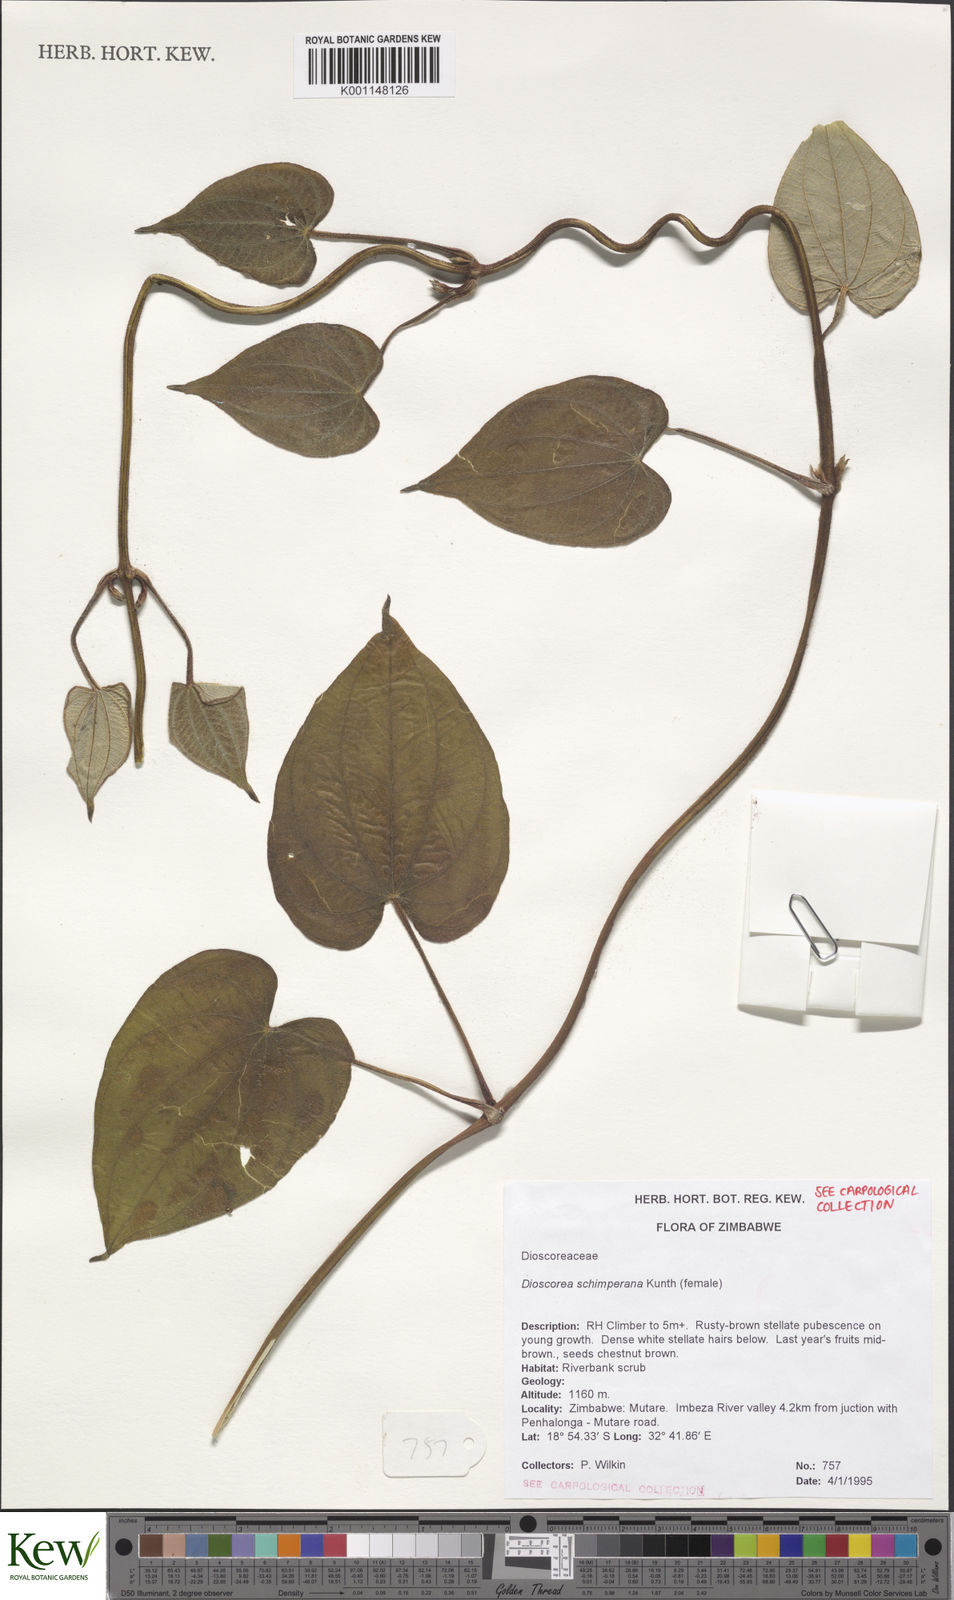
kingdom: Plantae
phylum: Tracheophyta
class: Liliopsida
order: Dioscoreales
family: Dioscoreaceae
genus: Dioscorea
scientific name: Dioscorea schimperiana
